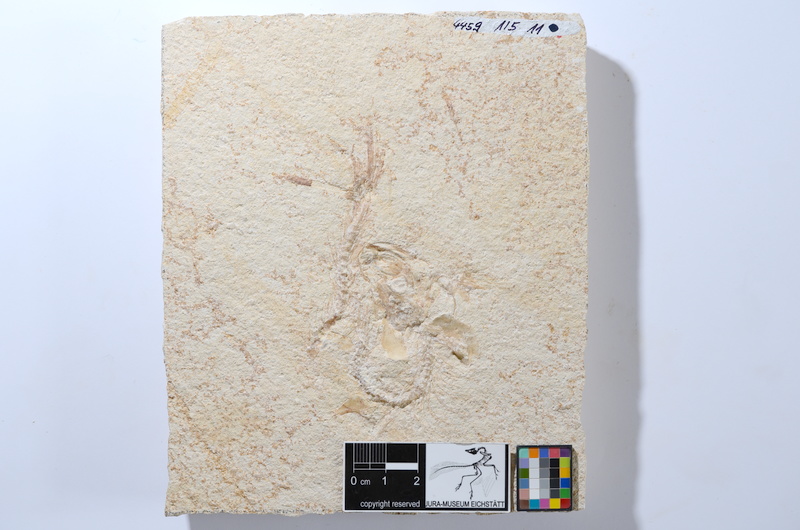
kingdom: Animalia
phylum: Chordata
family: Ascalaboidae
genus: Tharsis
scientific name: Tharsis dubius
